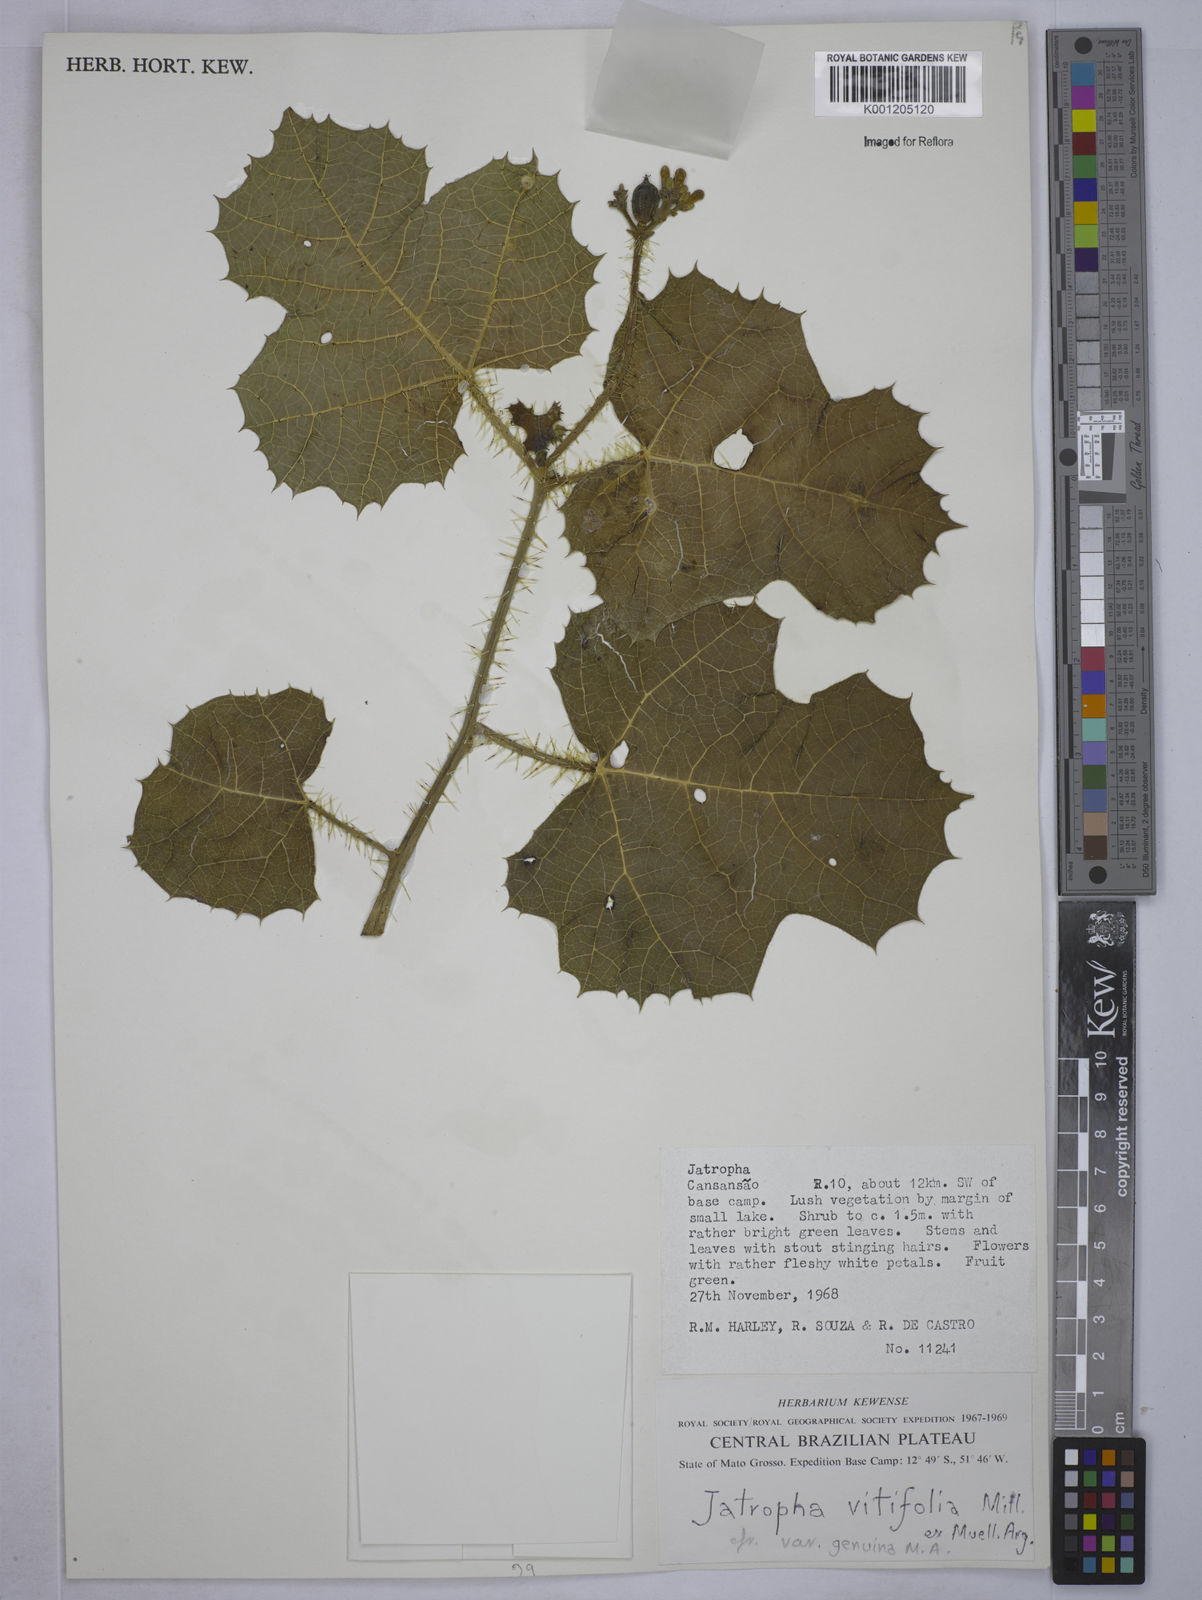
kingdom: Plantae
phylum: Tracheophyta
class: Magnoliopsida
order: Malpighiales
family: Euphorbiaceae
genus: Cnidoscolus
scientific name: Cnidoscolus vitifolius
